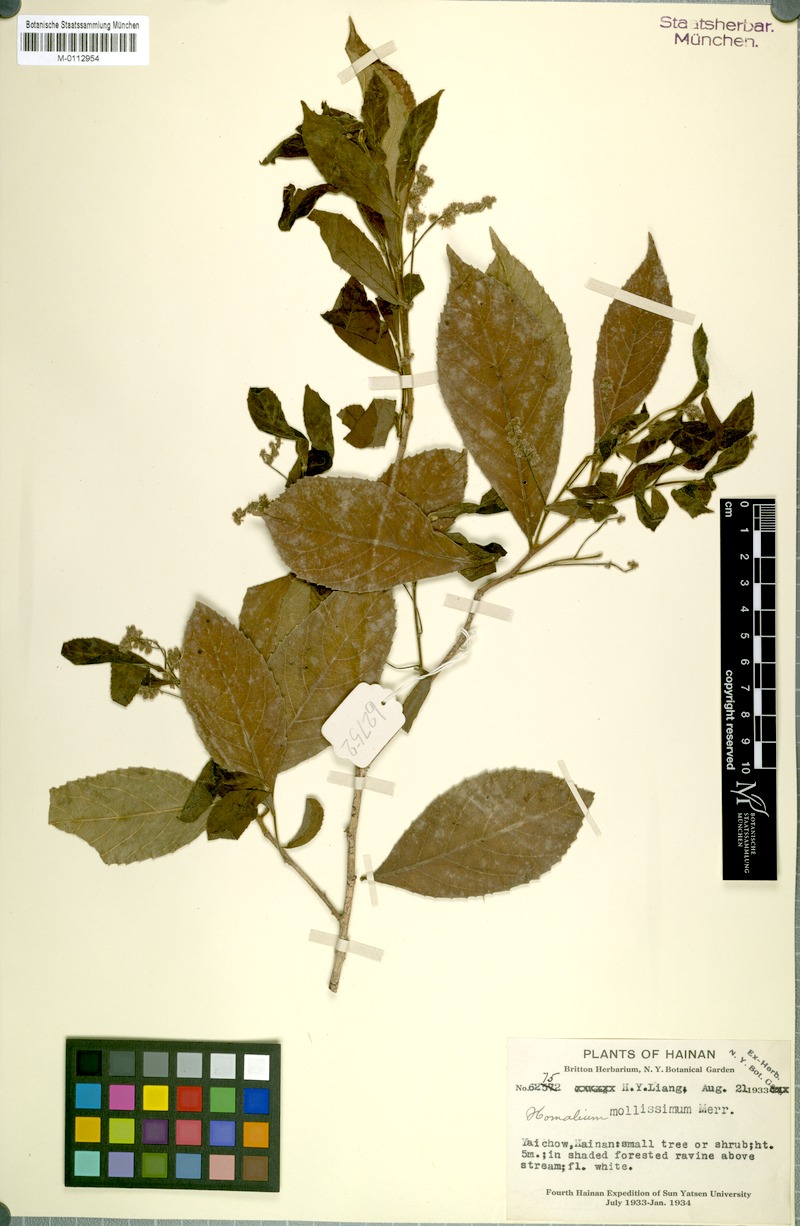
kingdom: Plantae
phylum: Tracheophyta
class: Magnoliopsida
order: Malpighiales
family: Salicaceae
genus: Homalium
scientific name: Homalium mollissimum
